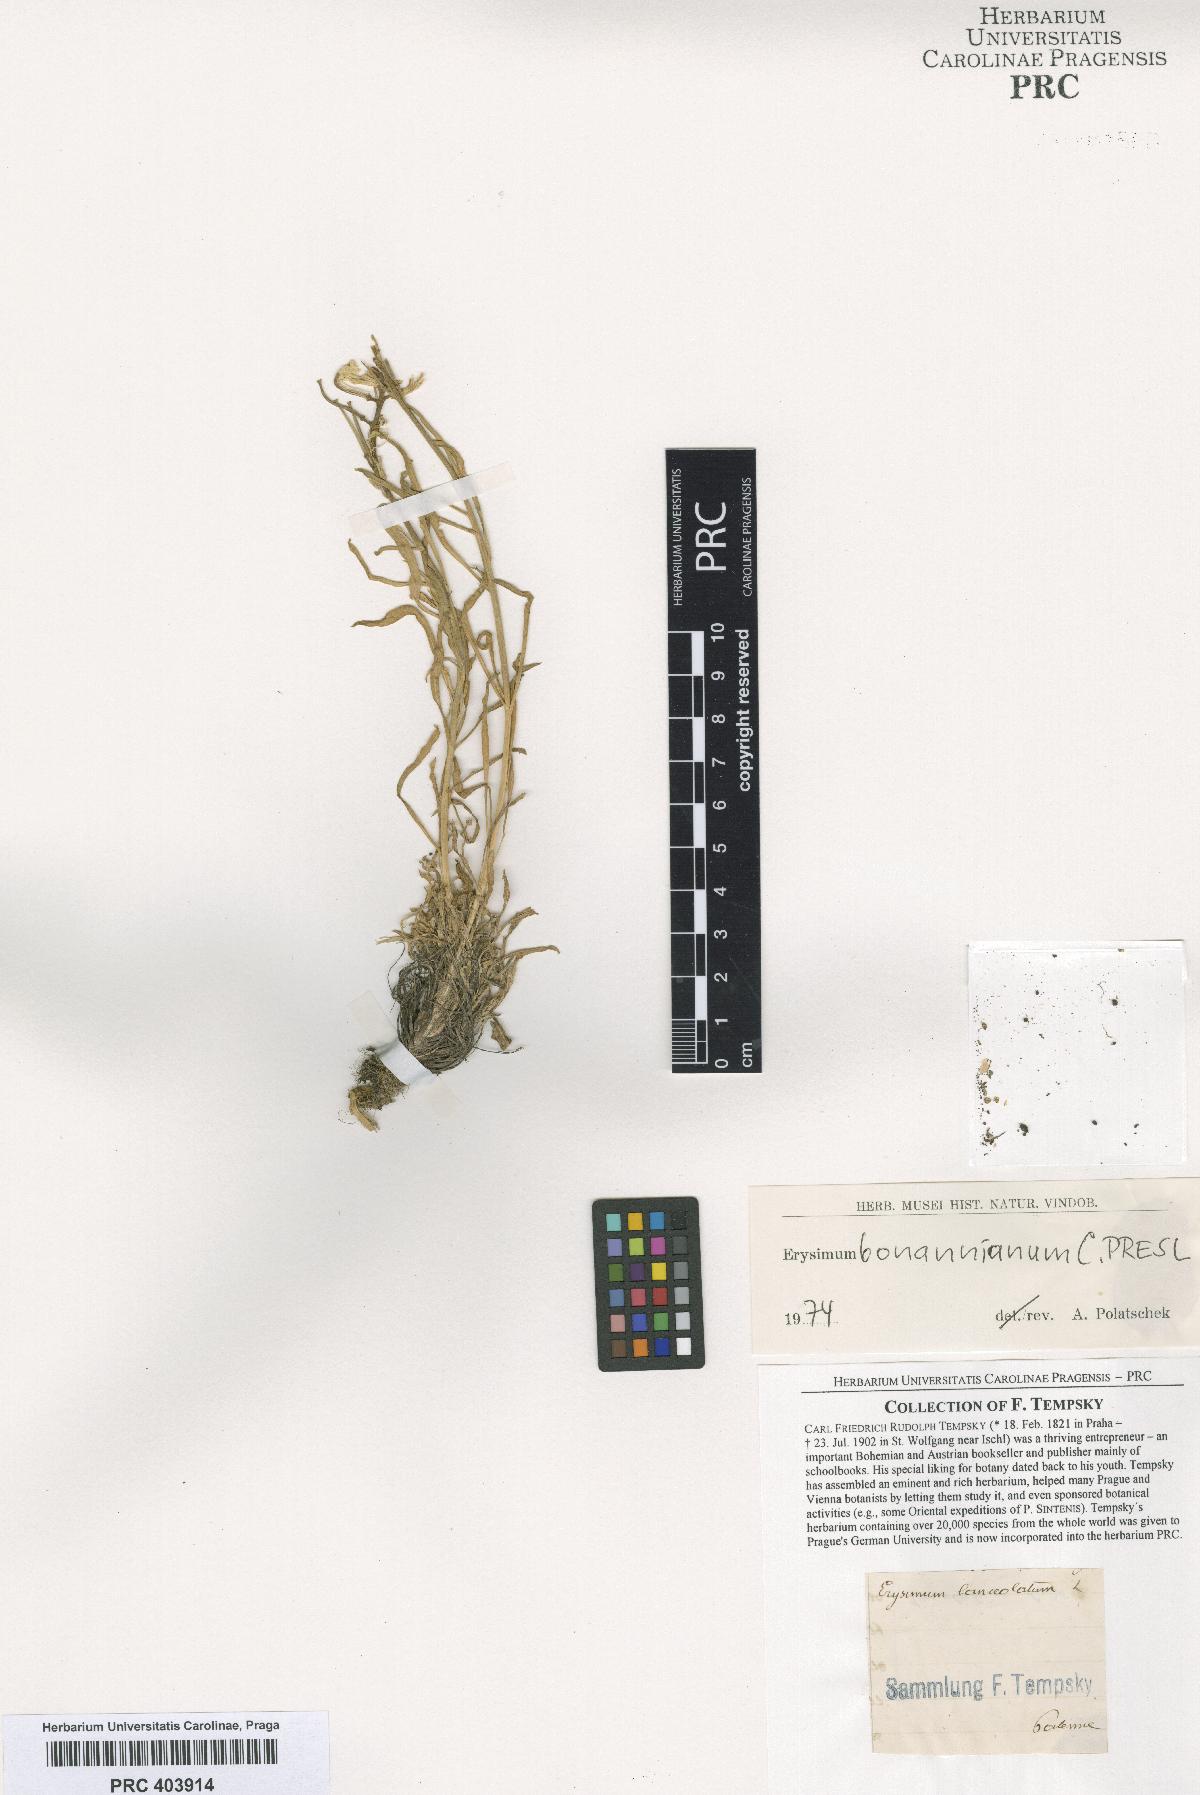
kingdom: Plantae
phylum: Tracheophyta
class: Magnoliopsida
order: Brassicales
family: Brassicaceae
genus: Erysimum
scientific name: Erysimum bonannianum
